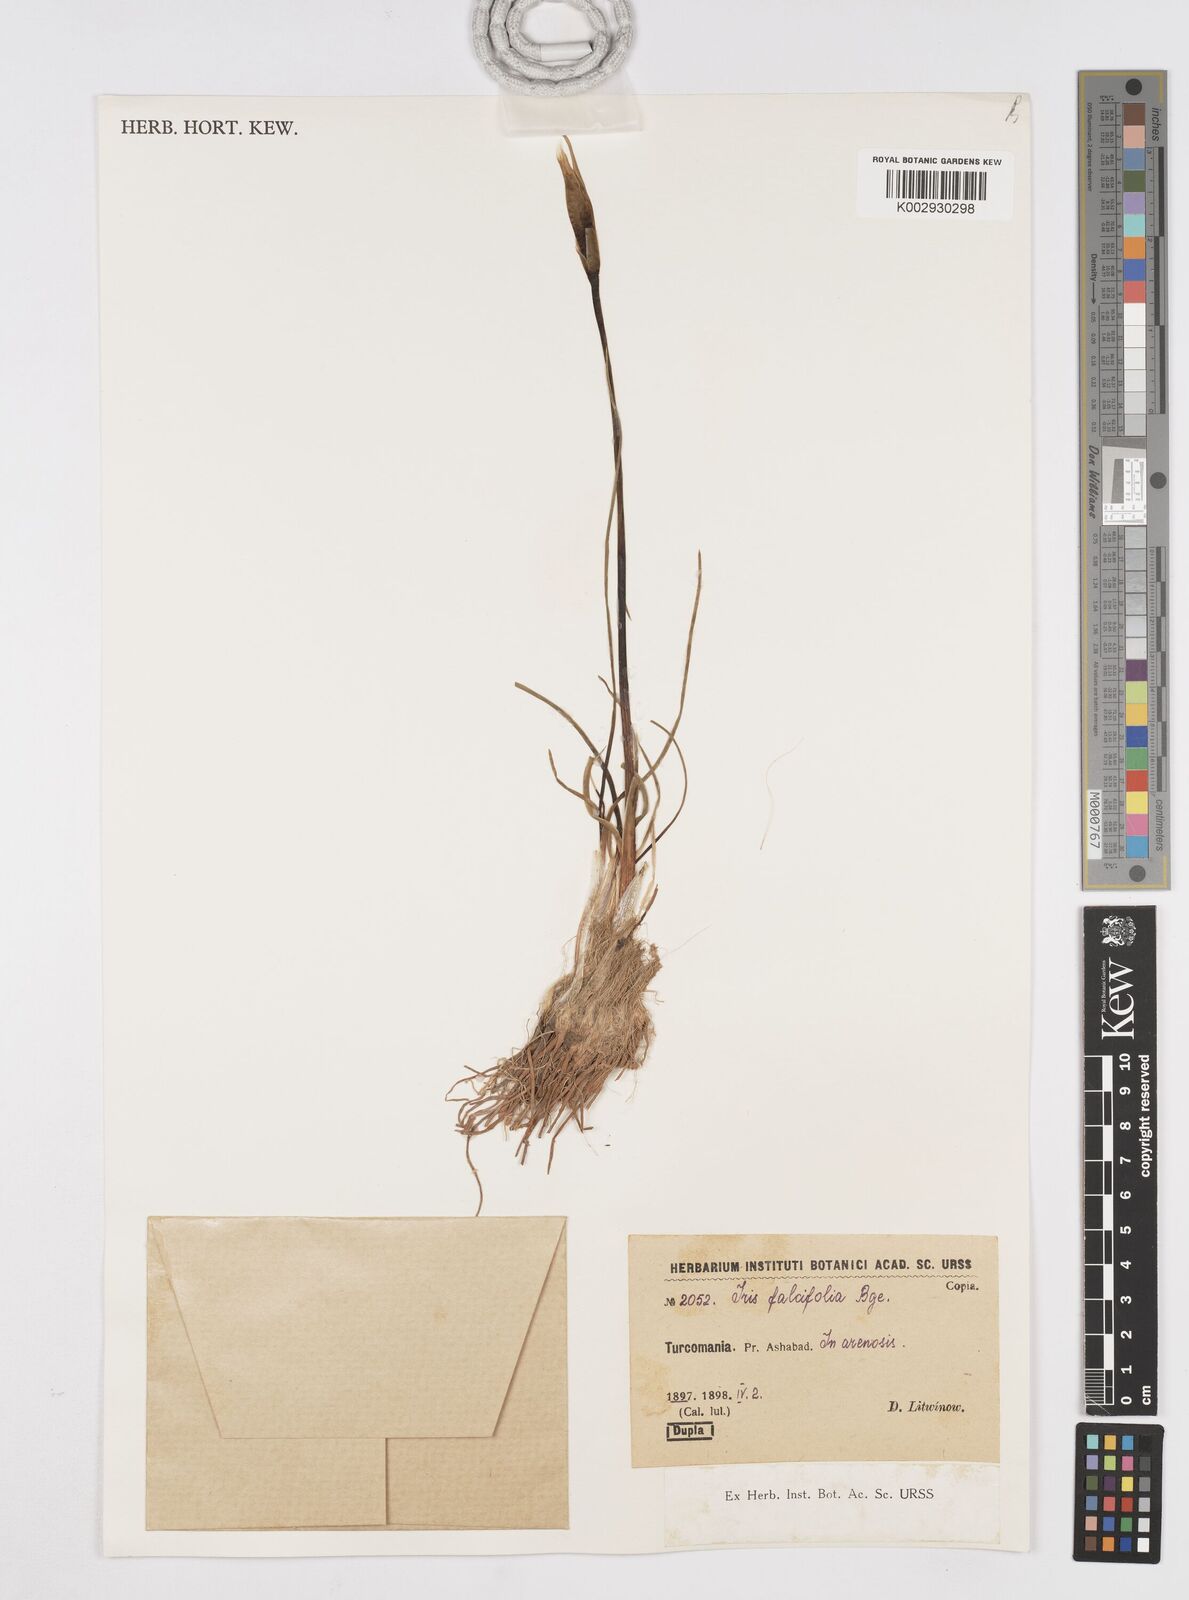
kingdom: Plantae
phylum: Tracheophyta
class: Liliopsida
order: Asparagales
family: Iridaceae
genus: Iris
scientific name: Iris longiscapa
